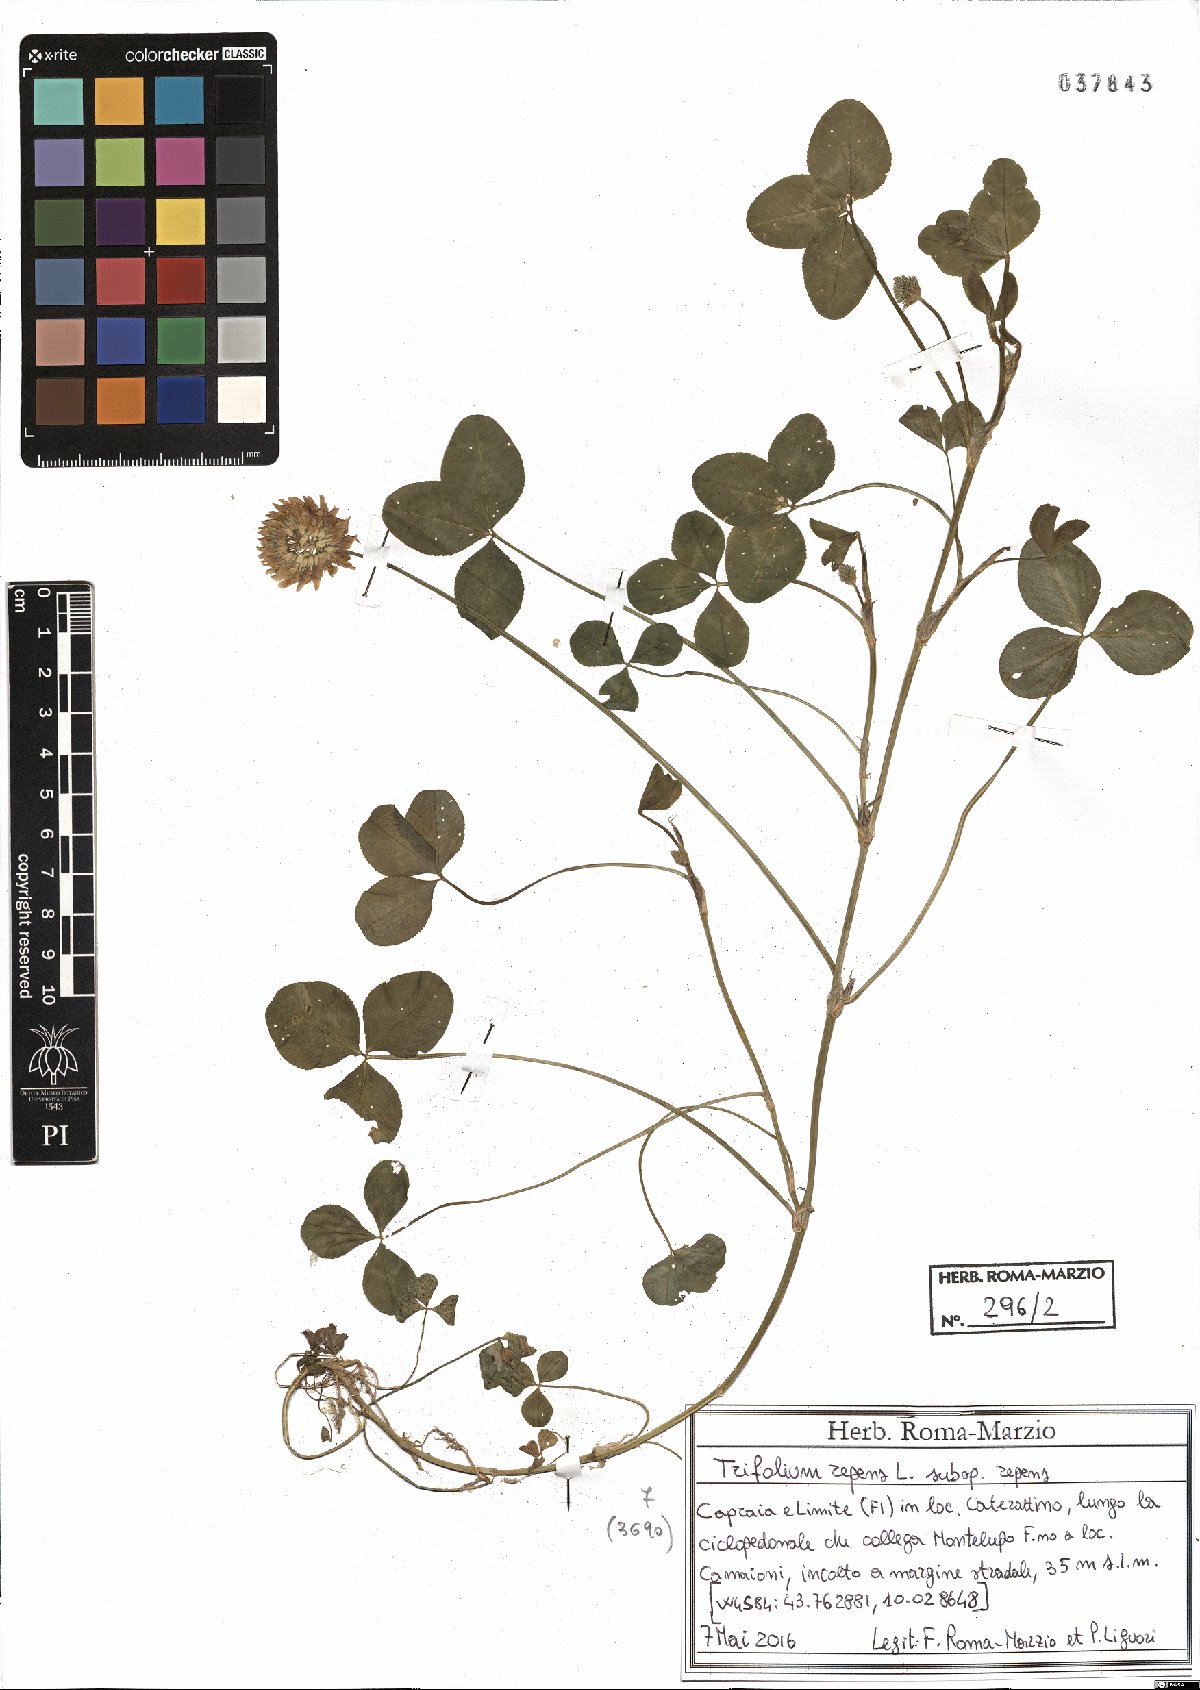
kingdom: Plantae
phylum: Tracheophyta
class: Magnoliopsida
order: Fabales
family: Fabaceae
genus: Trifolium
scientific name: Trifolium repens
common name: White clover
